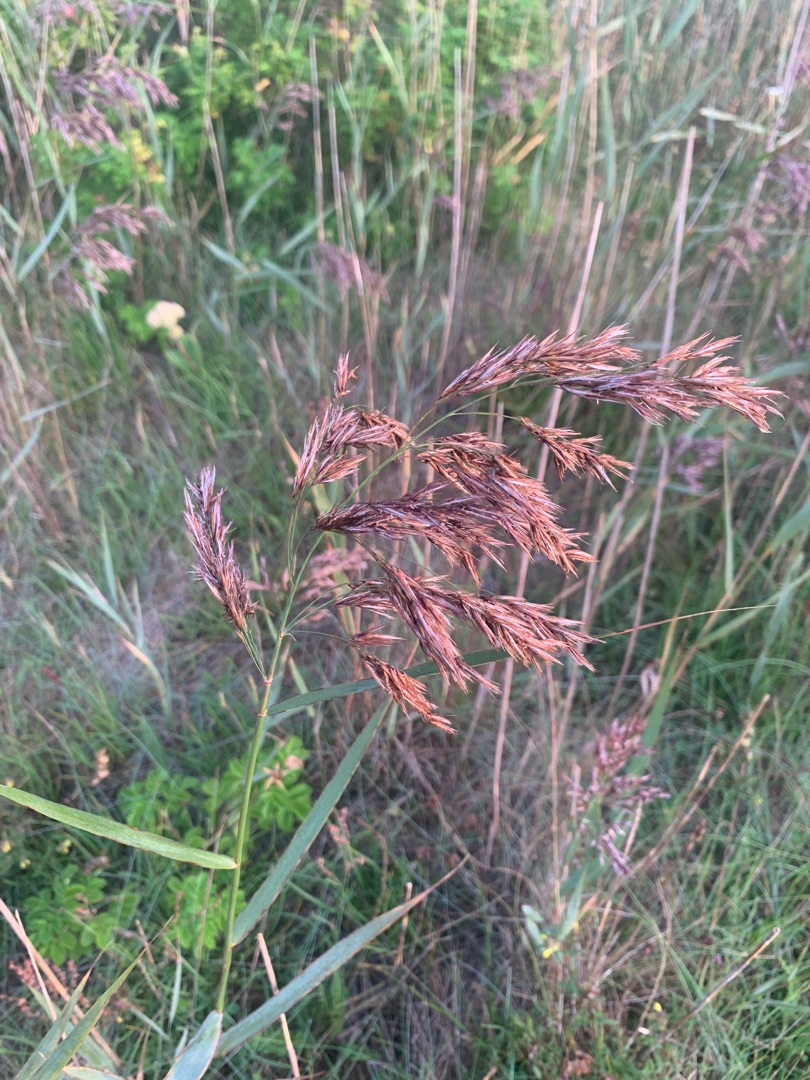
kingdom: Plantae
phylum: Tracheophyta
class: Liliopsida
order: Poales
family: Poaceae
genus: Phragmites
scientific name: Phragmites australis
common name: Tagrør
